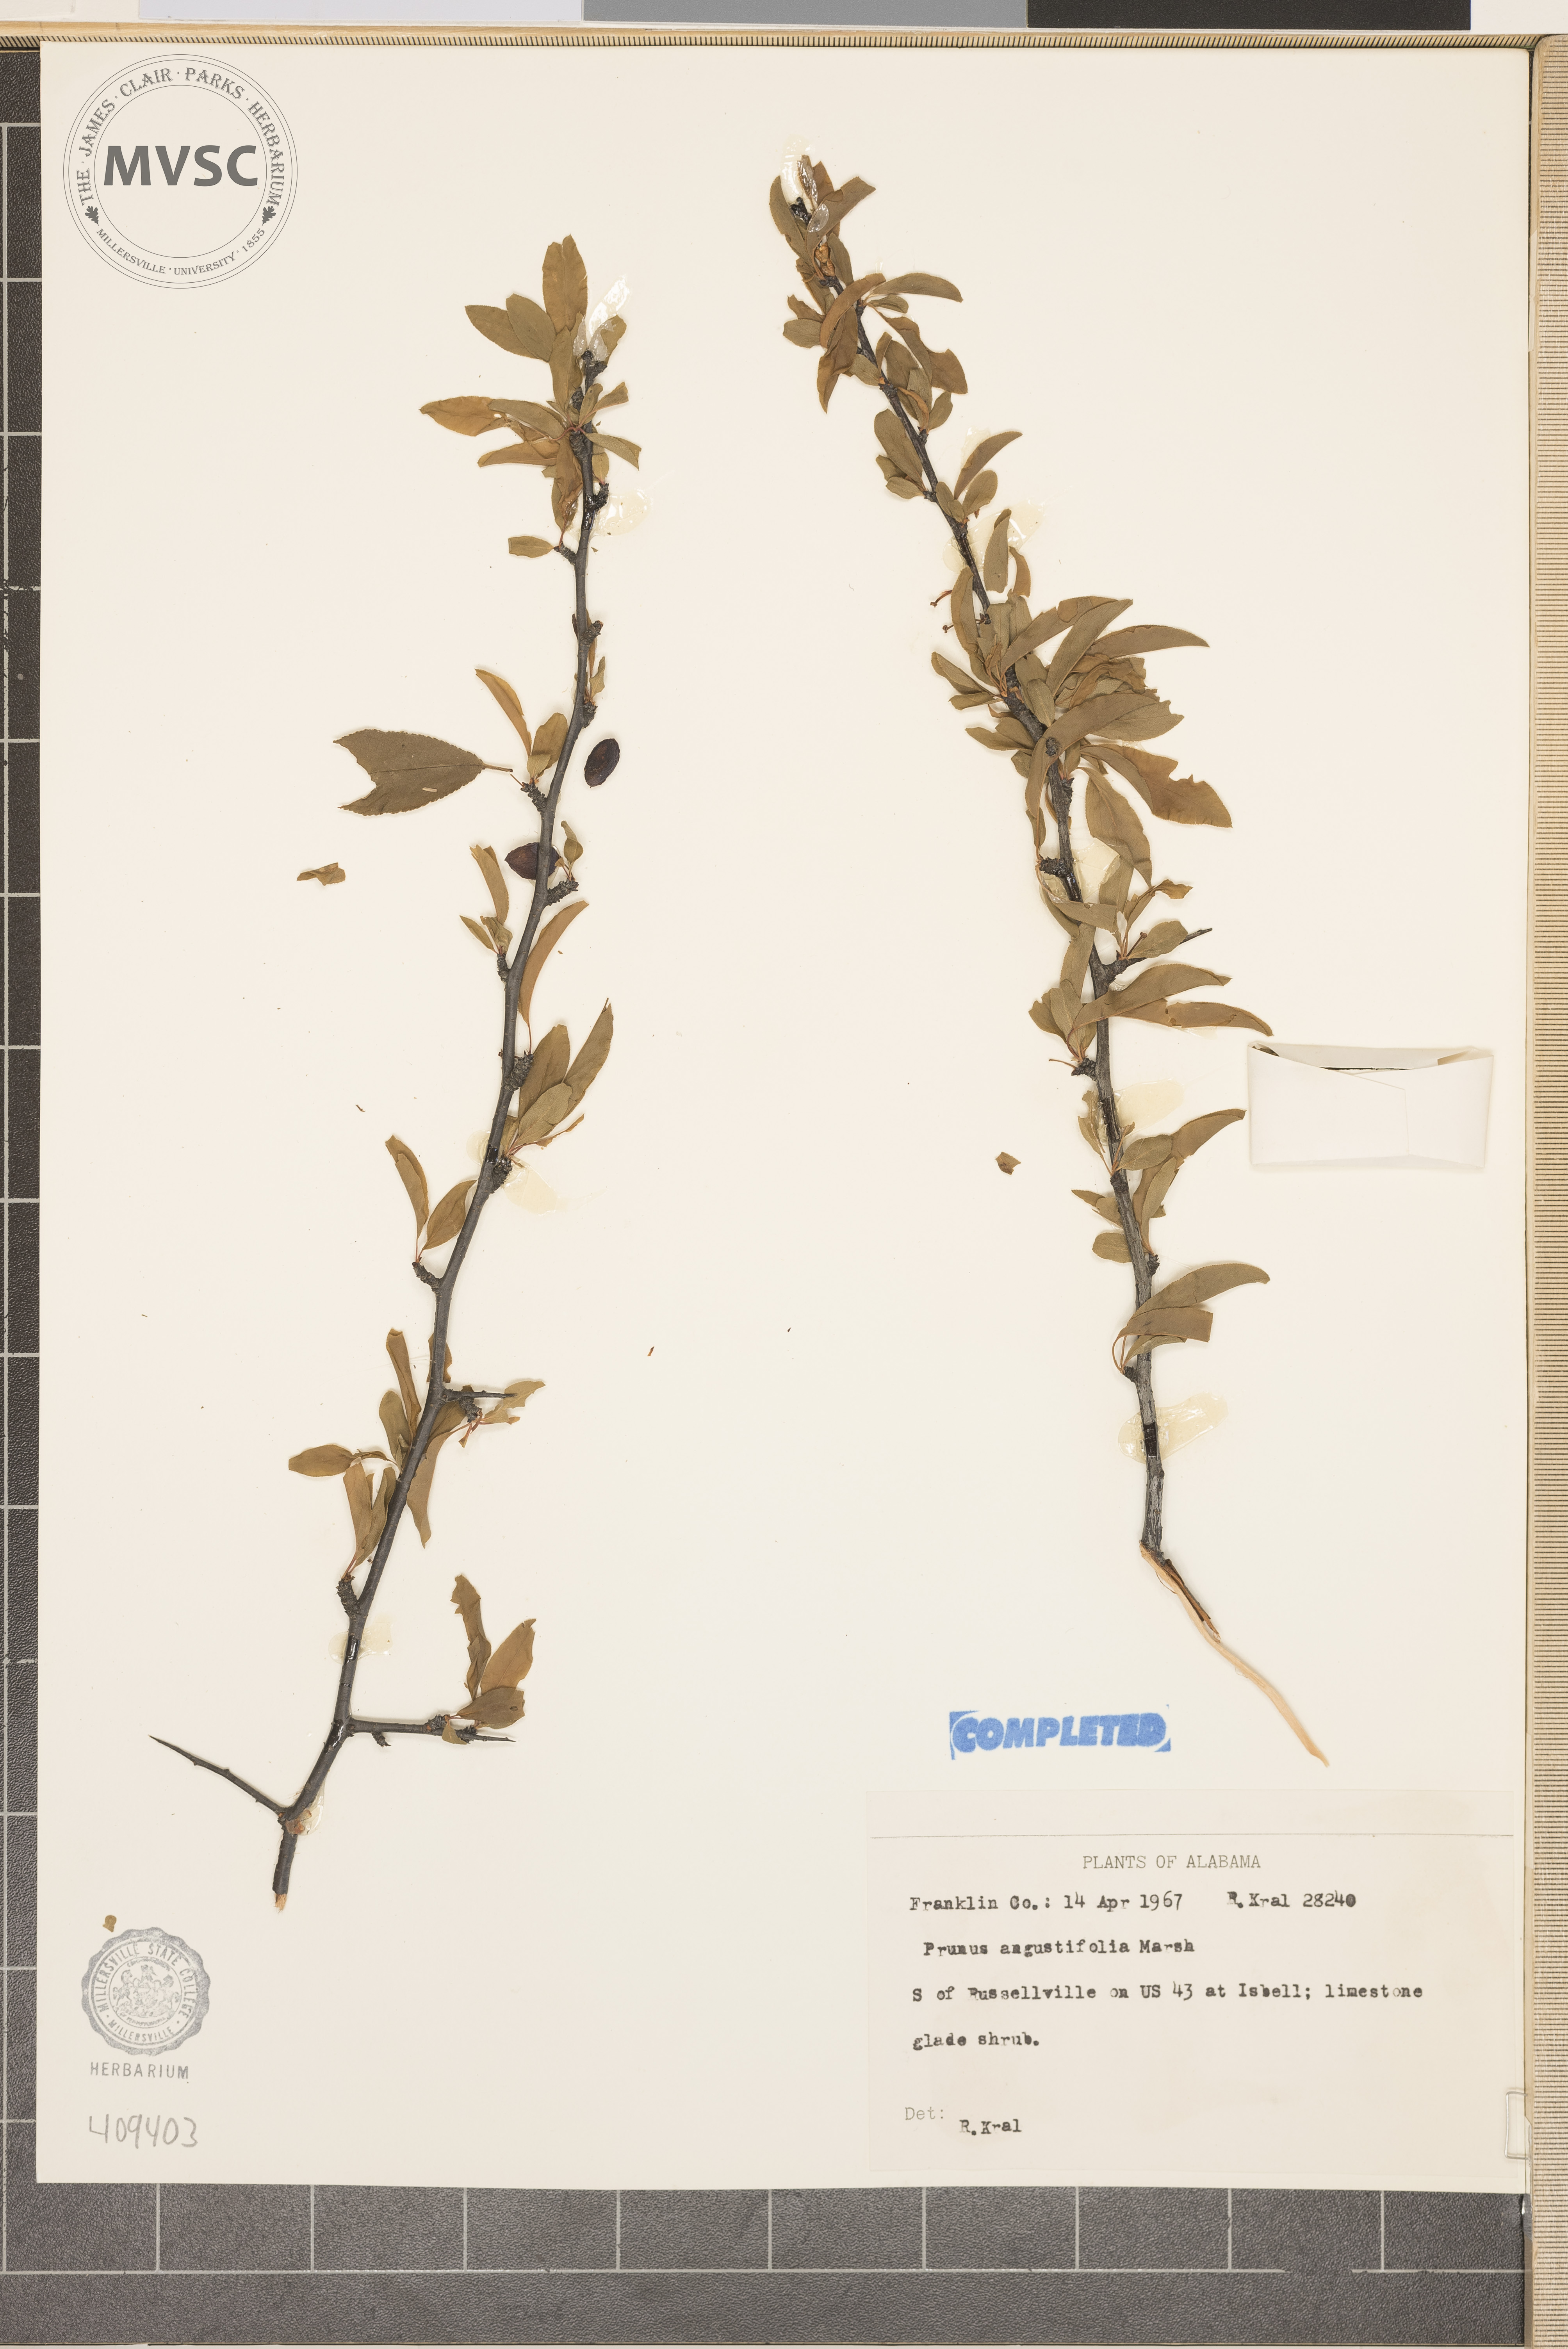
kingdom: Plantae
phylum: Tracheophyta
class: Magnoliopsida
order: Rosales
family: Rosaceae
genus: Prunus
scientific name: Prunus angustifolia
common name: Chickasaw Plum
